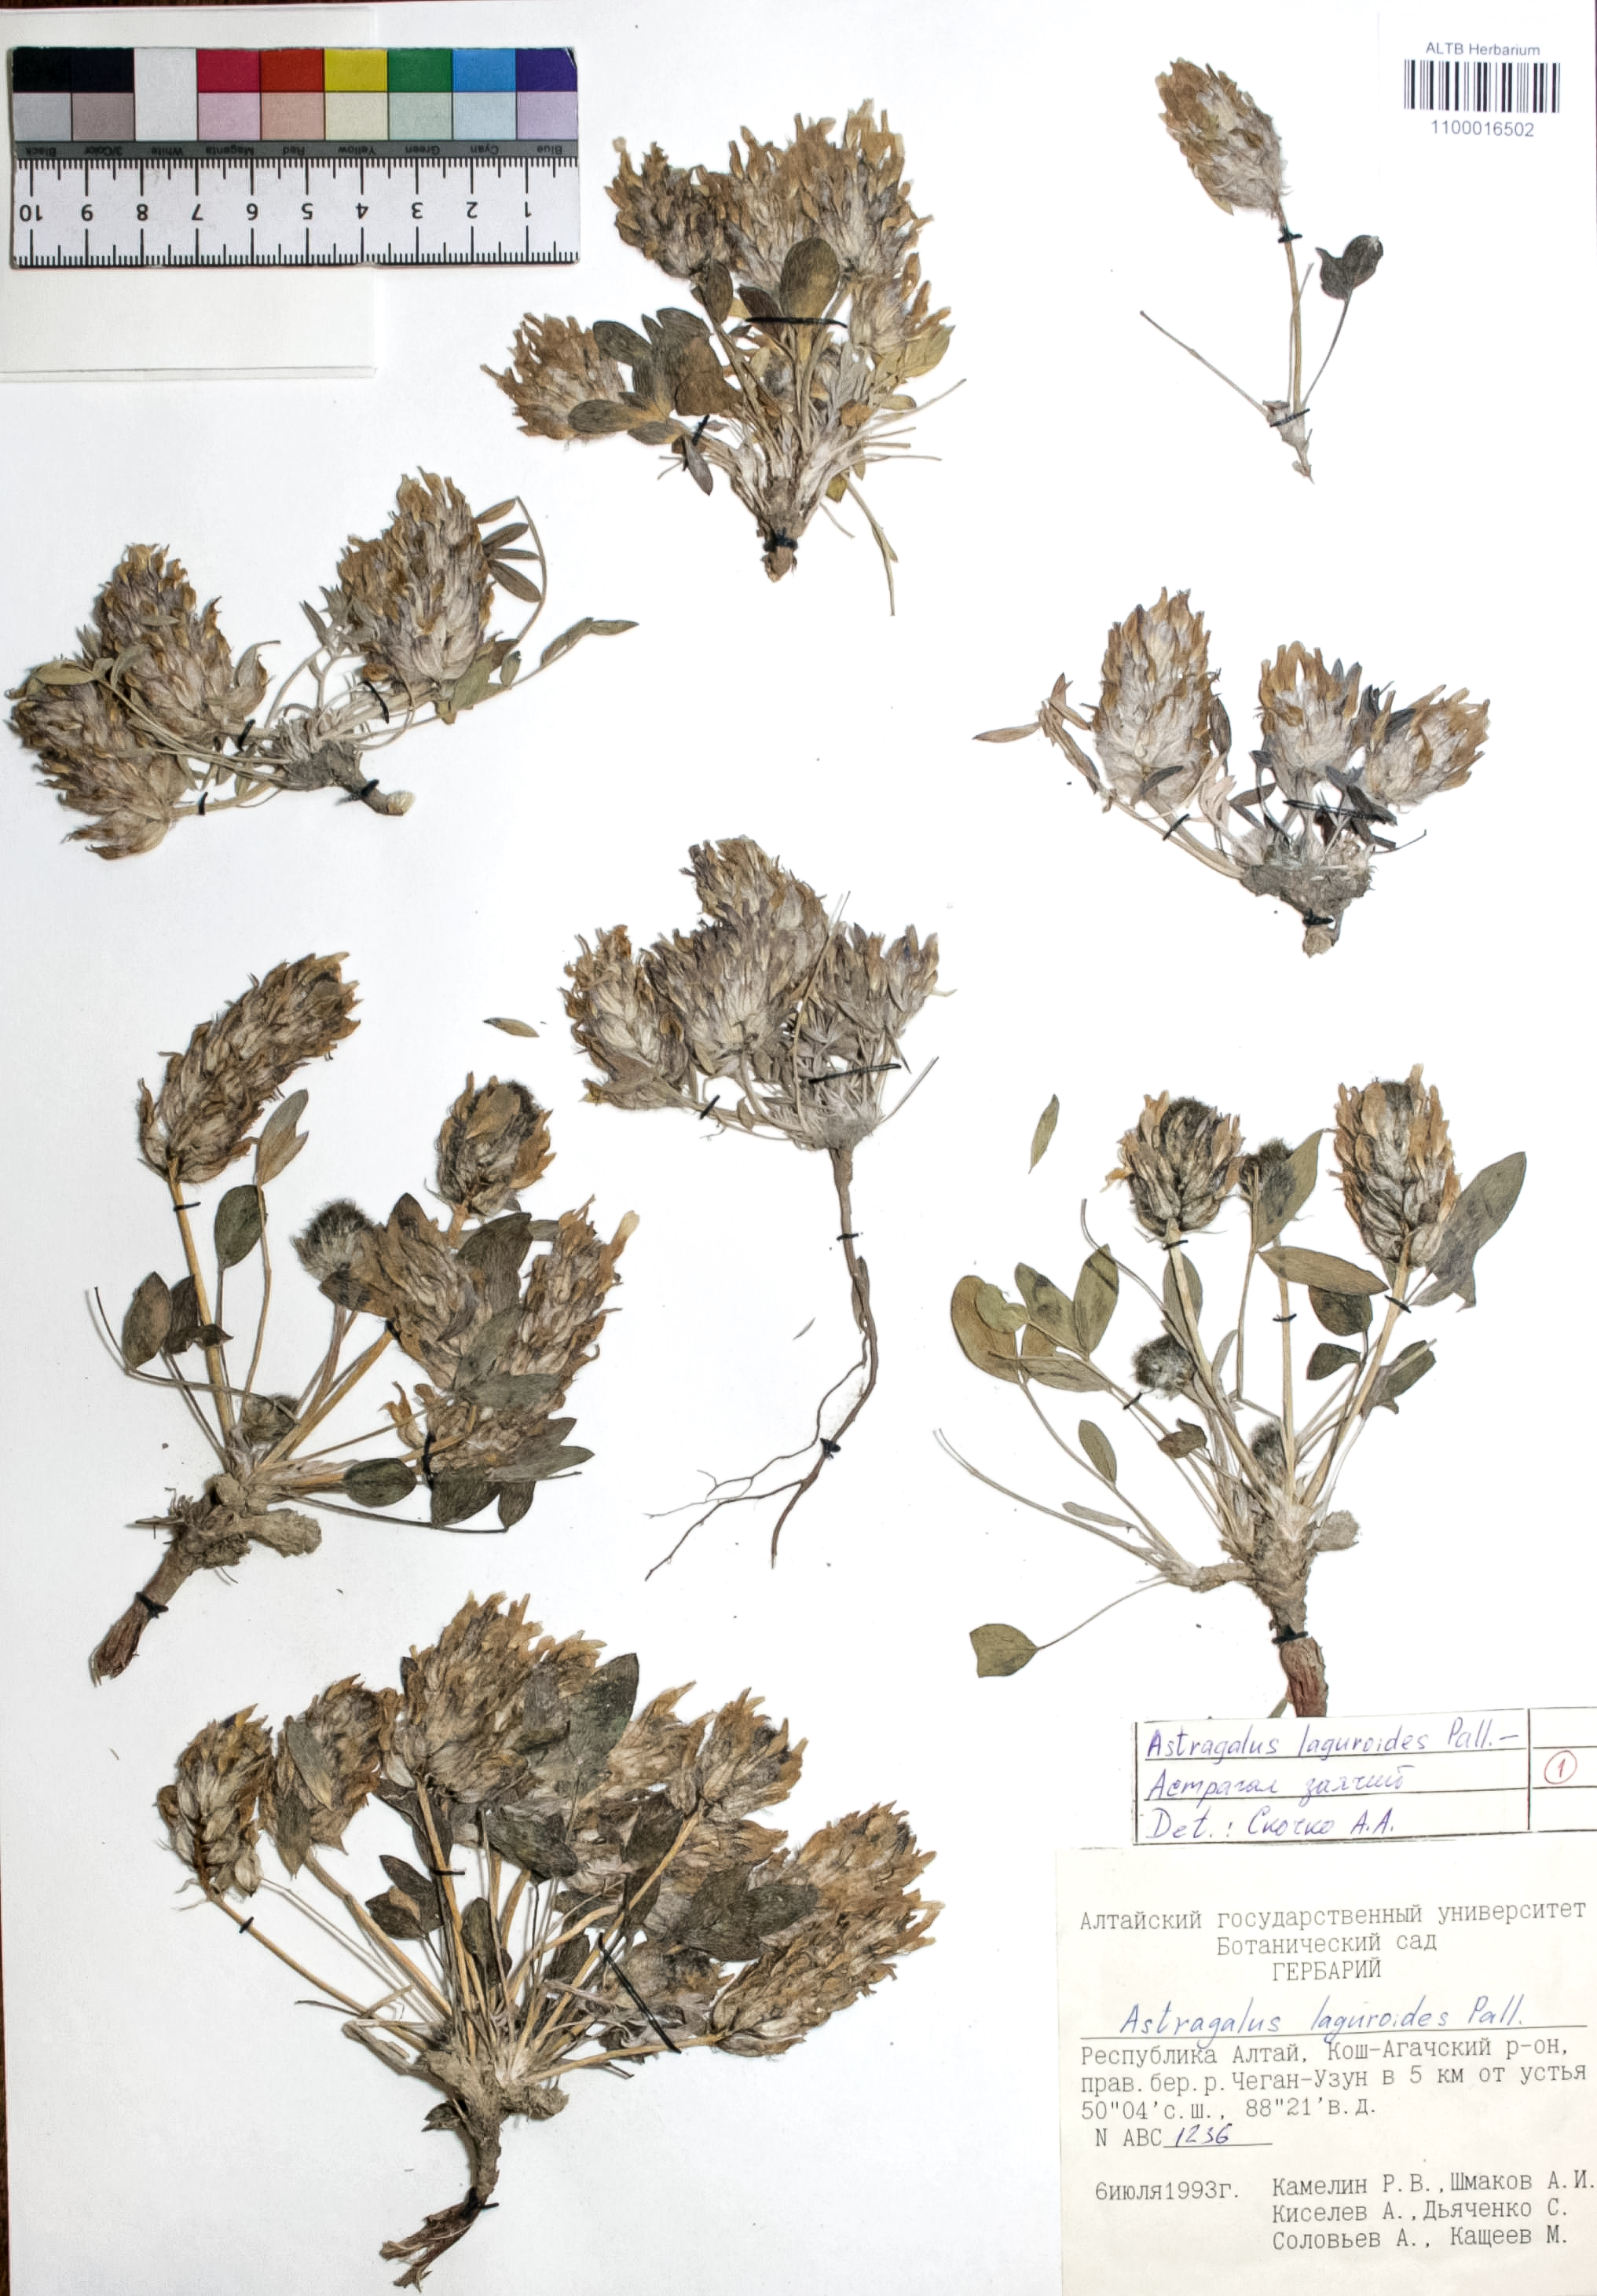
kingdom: Plantae
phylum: Tracheophyta
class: Magnoliopsida
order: Fabales
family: Fabaceae
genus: Astragalus
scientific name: Astragalus laguroides
